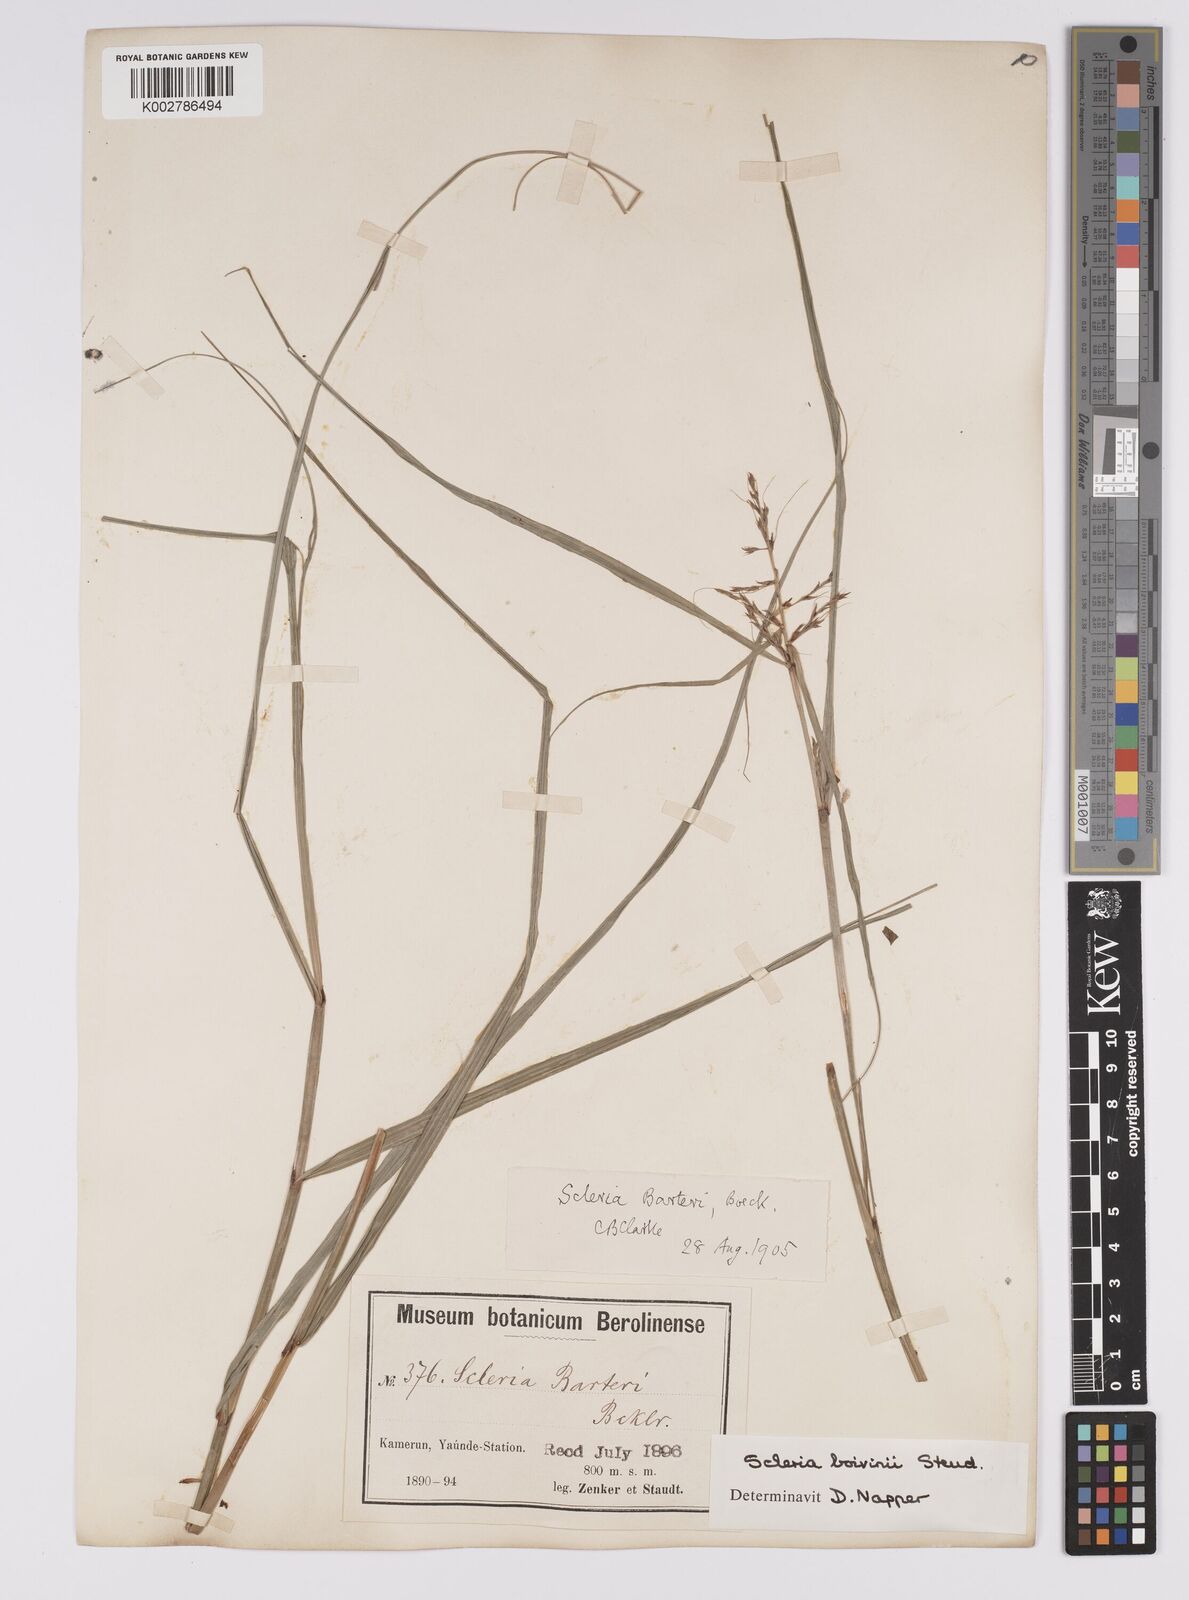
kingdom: Plantae
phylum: Tracheophyta
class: Liliopsida
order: Poales
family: Cyperaceae
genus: Scleria
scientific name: Scleria boivinii
